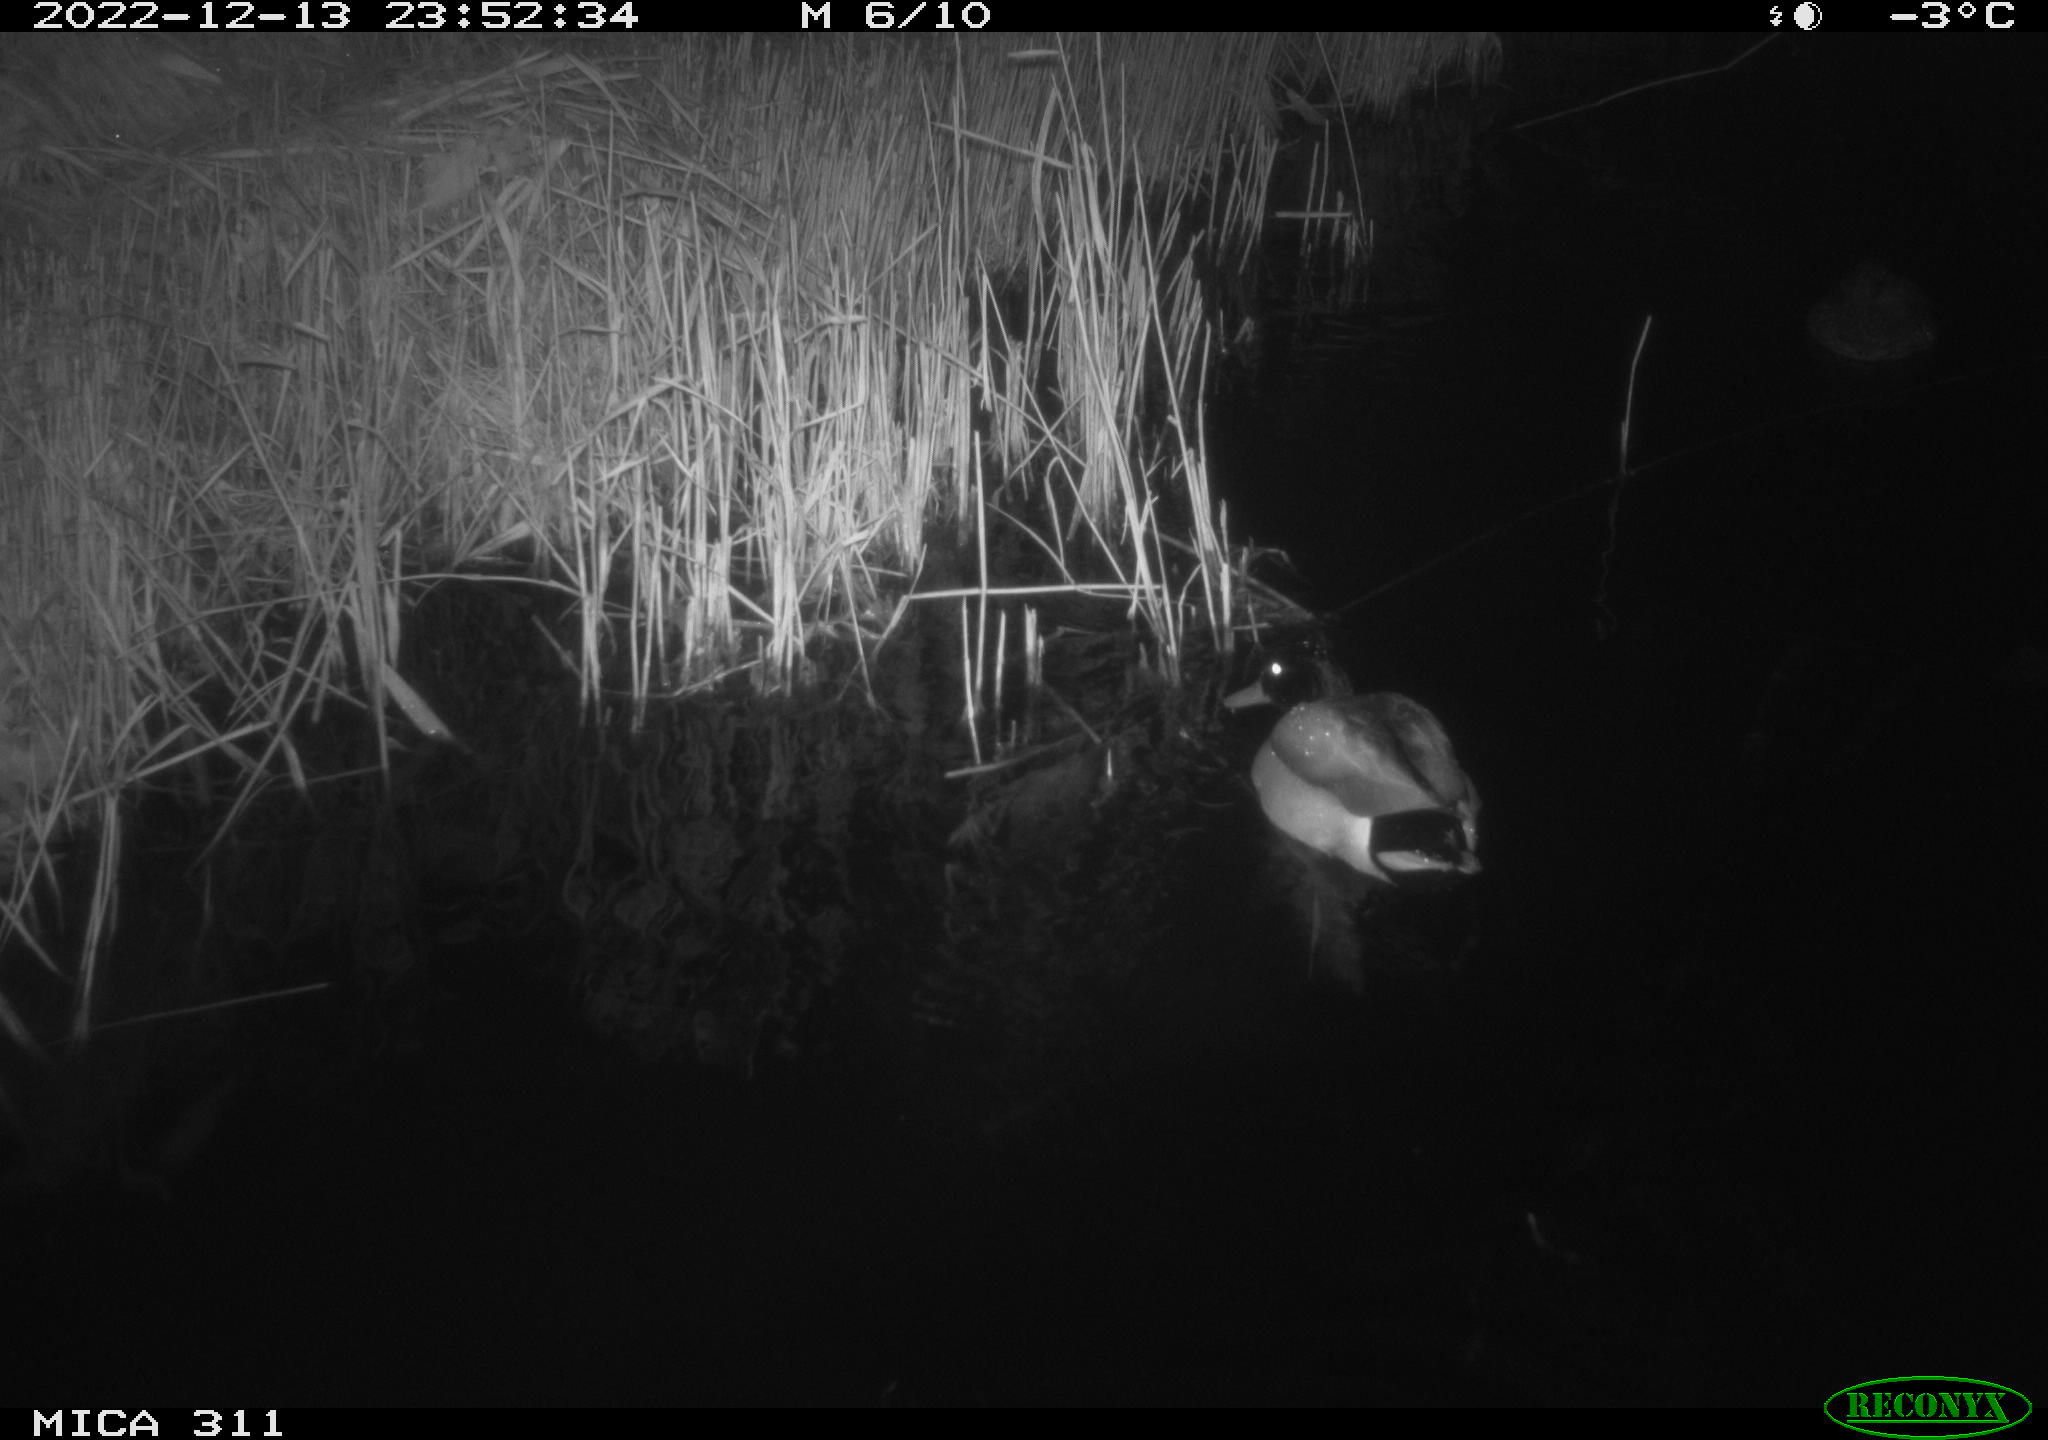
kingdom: Animalia
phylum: Chordata
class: Aves
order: Anseriformes
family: Anatidae
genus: Anas
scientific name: Anas
